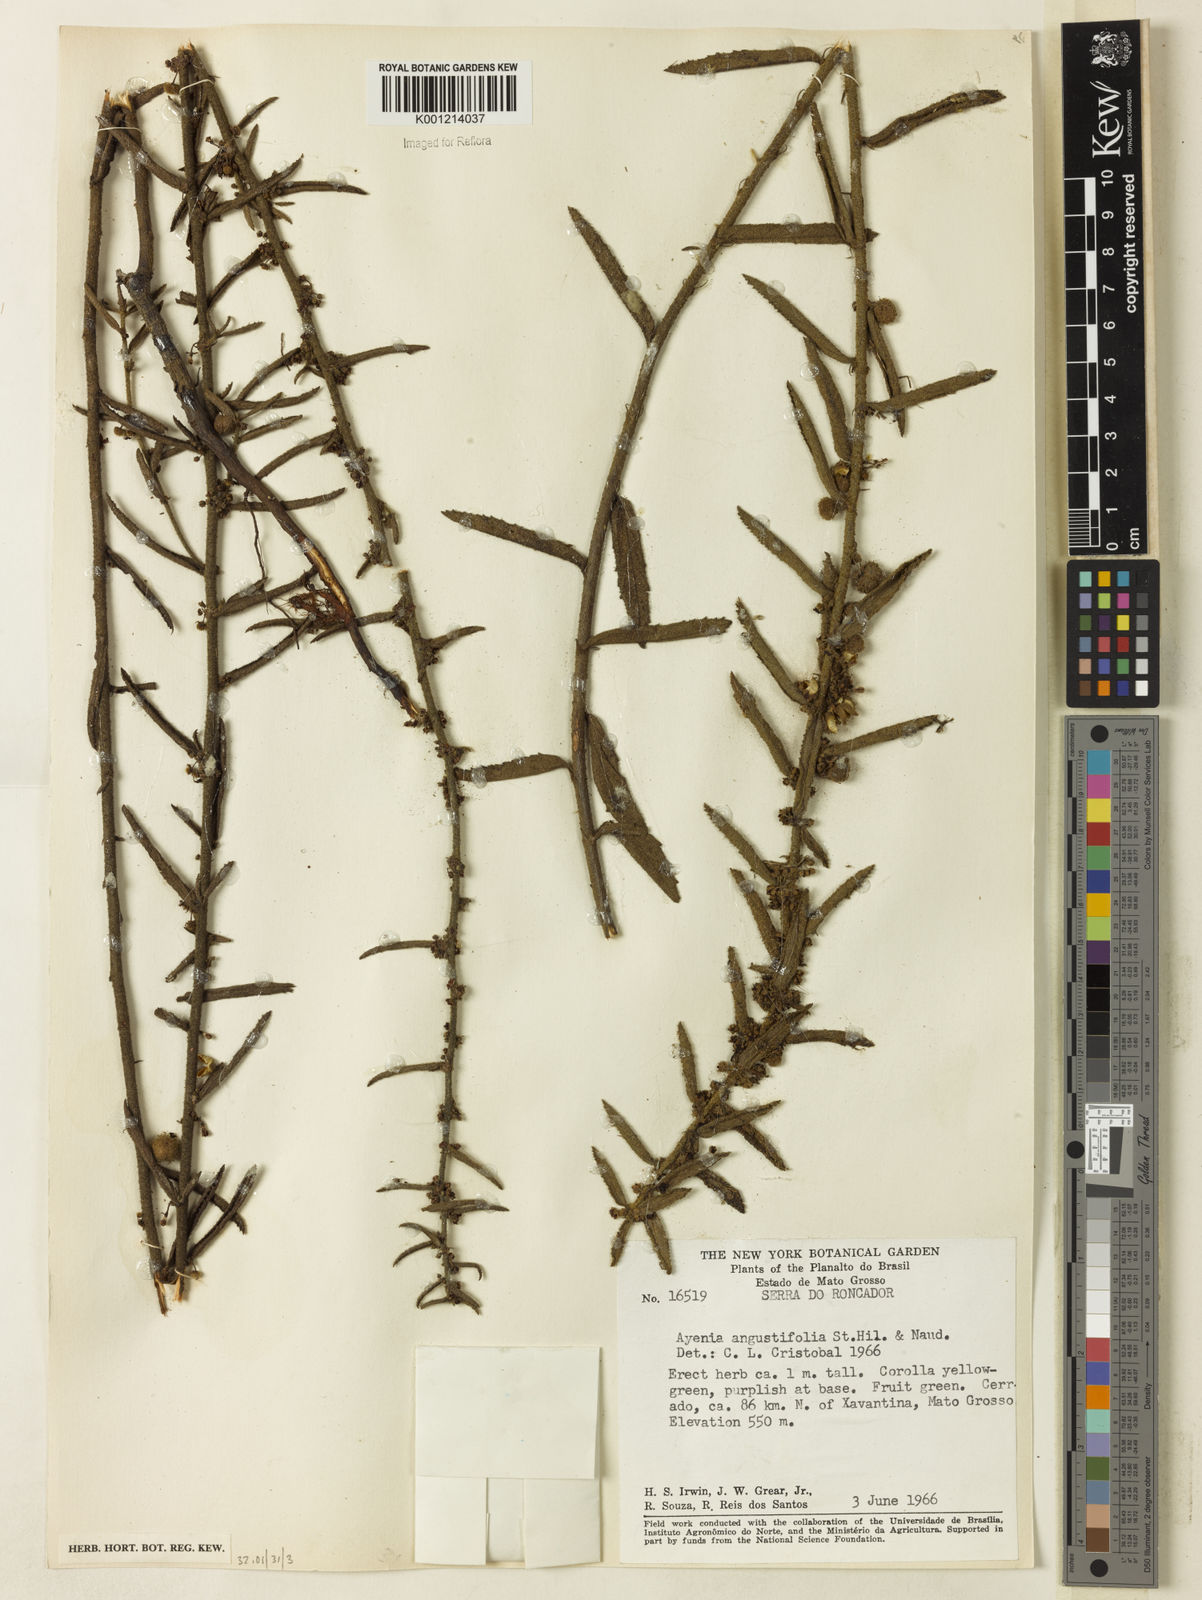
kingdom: Plantae
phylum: Tracheophyta
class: Magnoliopsida
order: Malvales
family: Malvaceae
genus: Ayenia
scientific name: Ayenia angustifolia
